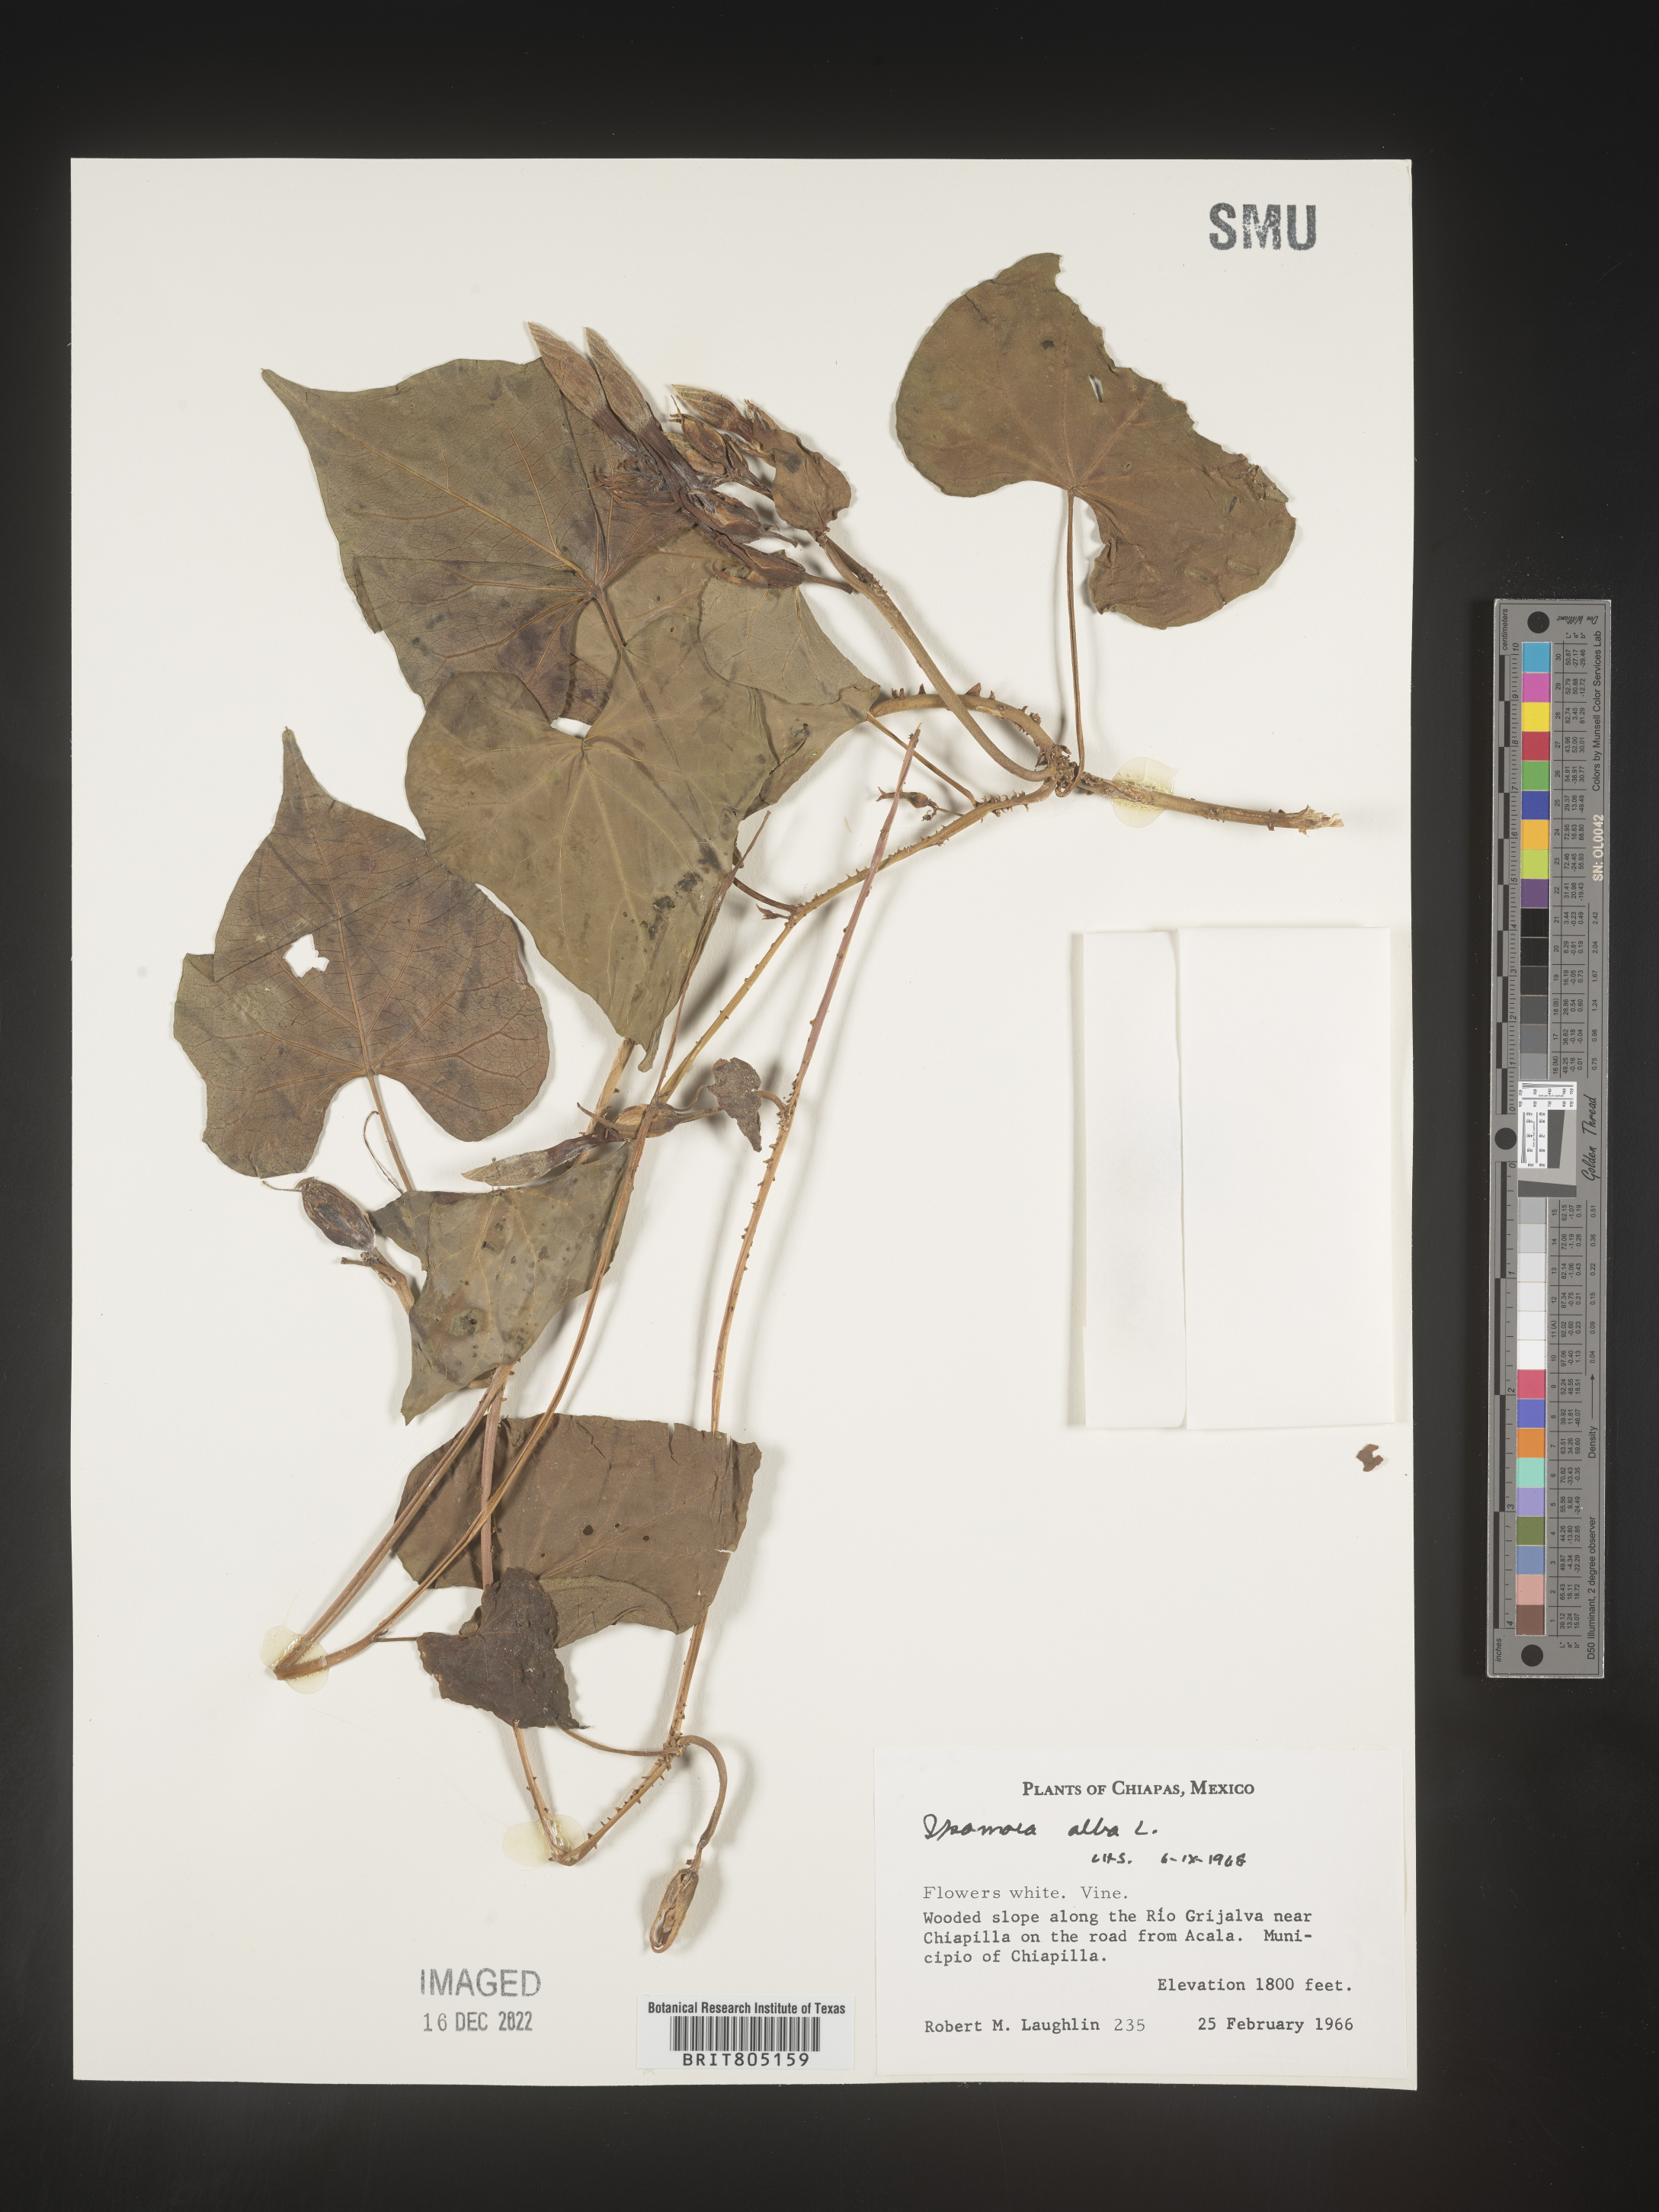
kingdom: Plantae
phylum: Tracheophyta
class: Magnoliopsida
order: Solanales
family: Convolvulaceae
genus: Ipomoea
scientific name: Ipomoea
